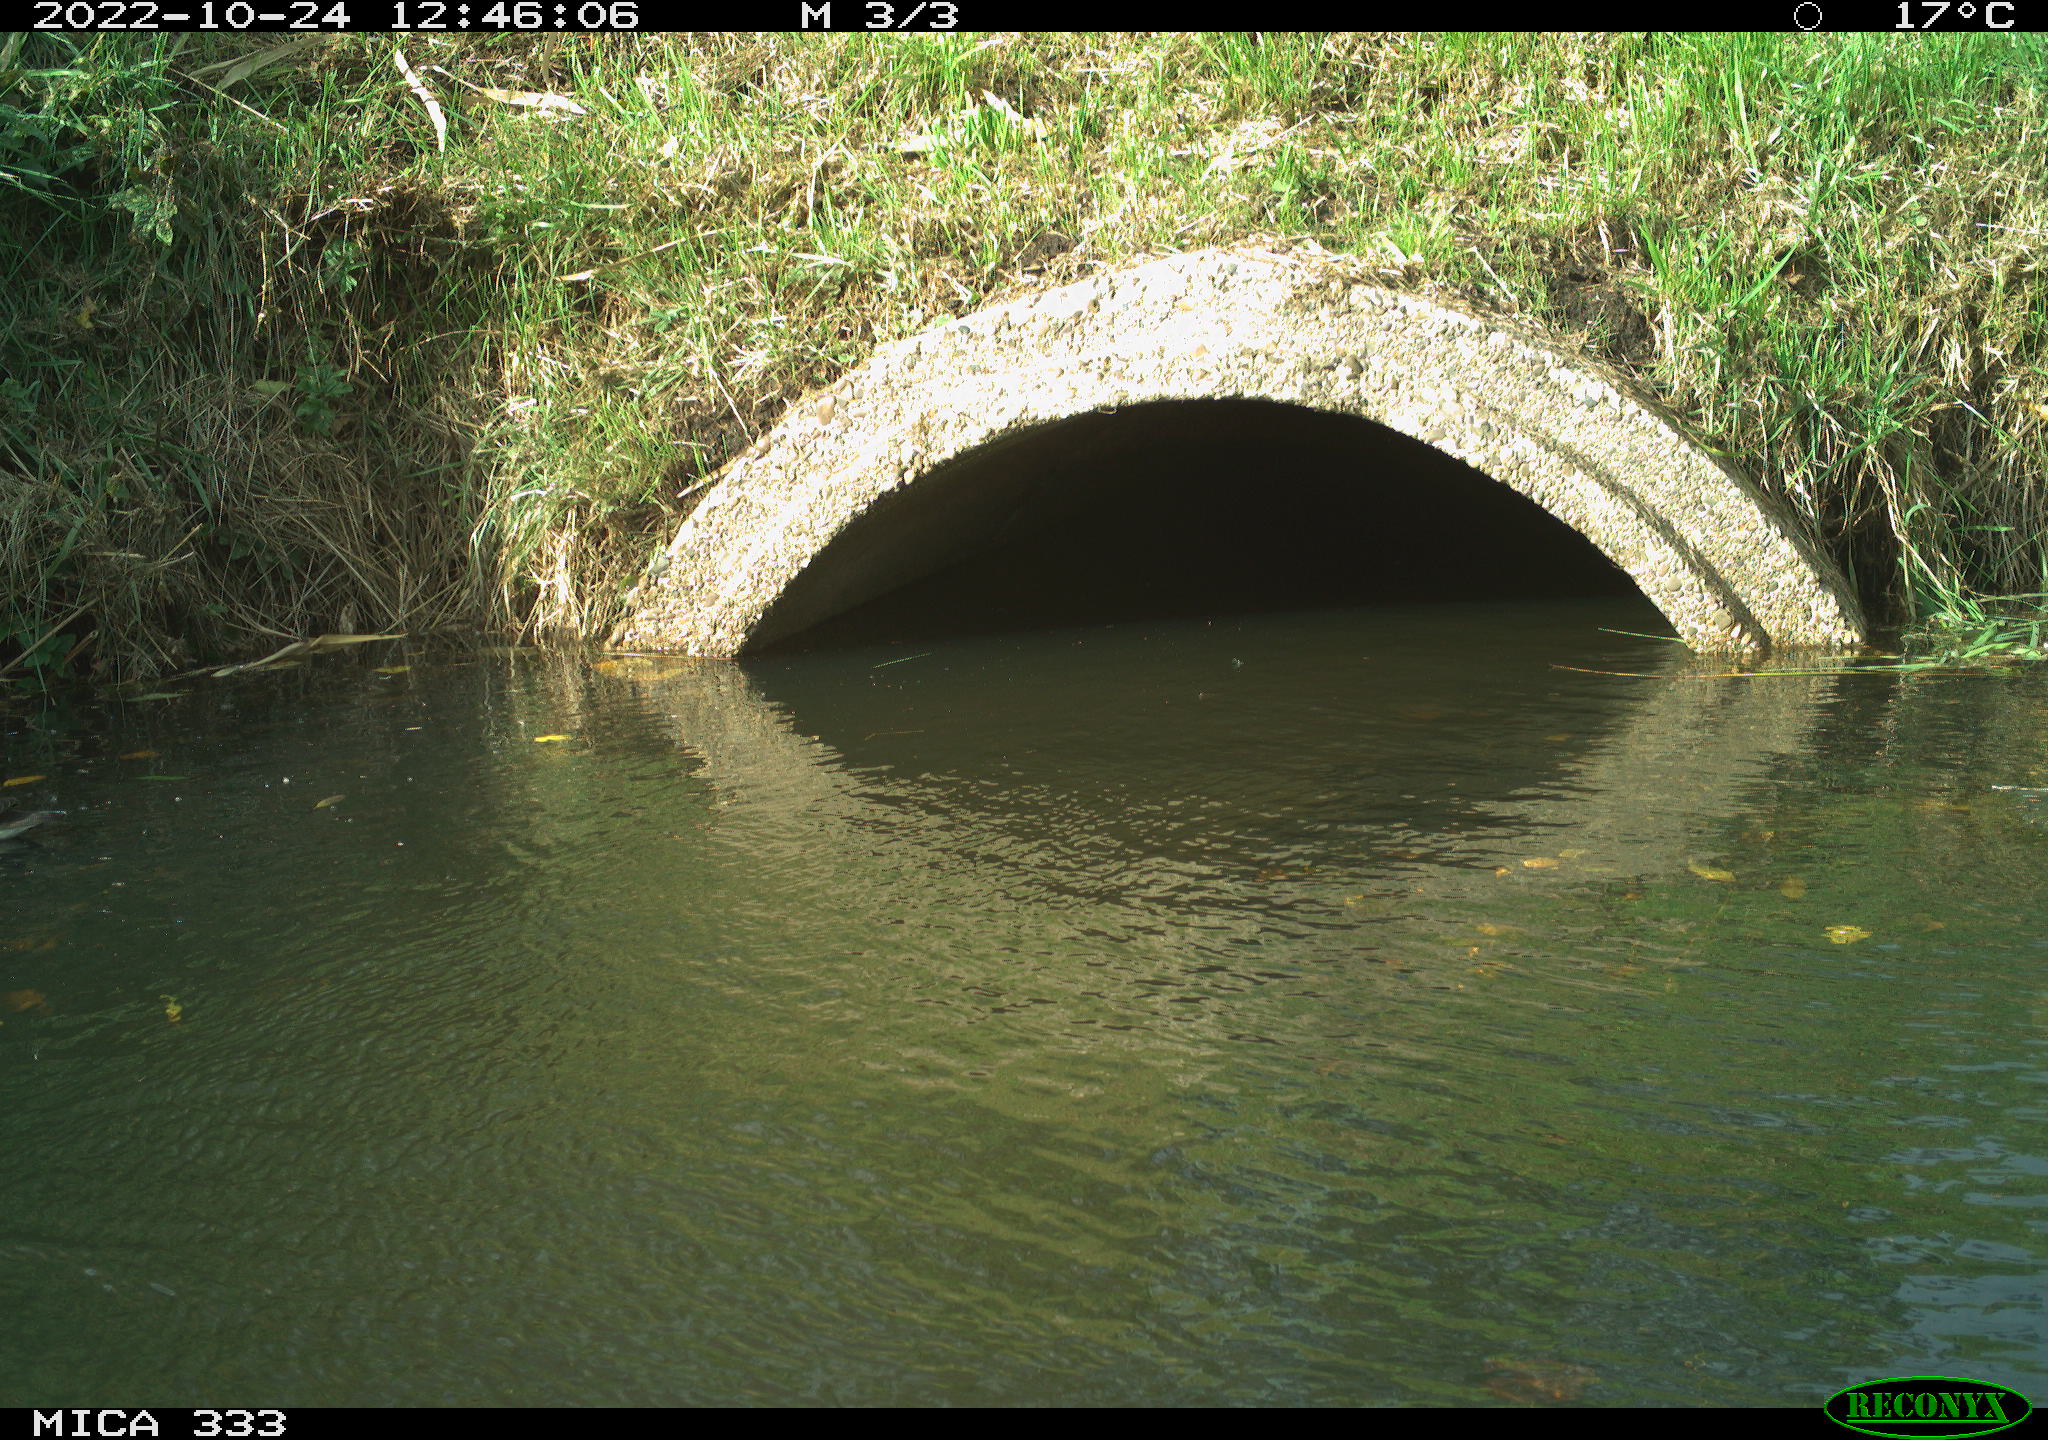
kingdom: Animalia
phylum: Chordata
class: Aves
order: Gruiformes
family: Rallidae
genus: Gallinula
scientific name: Gallinula chloropus
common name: Common moorhen
